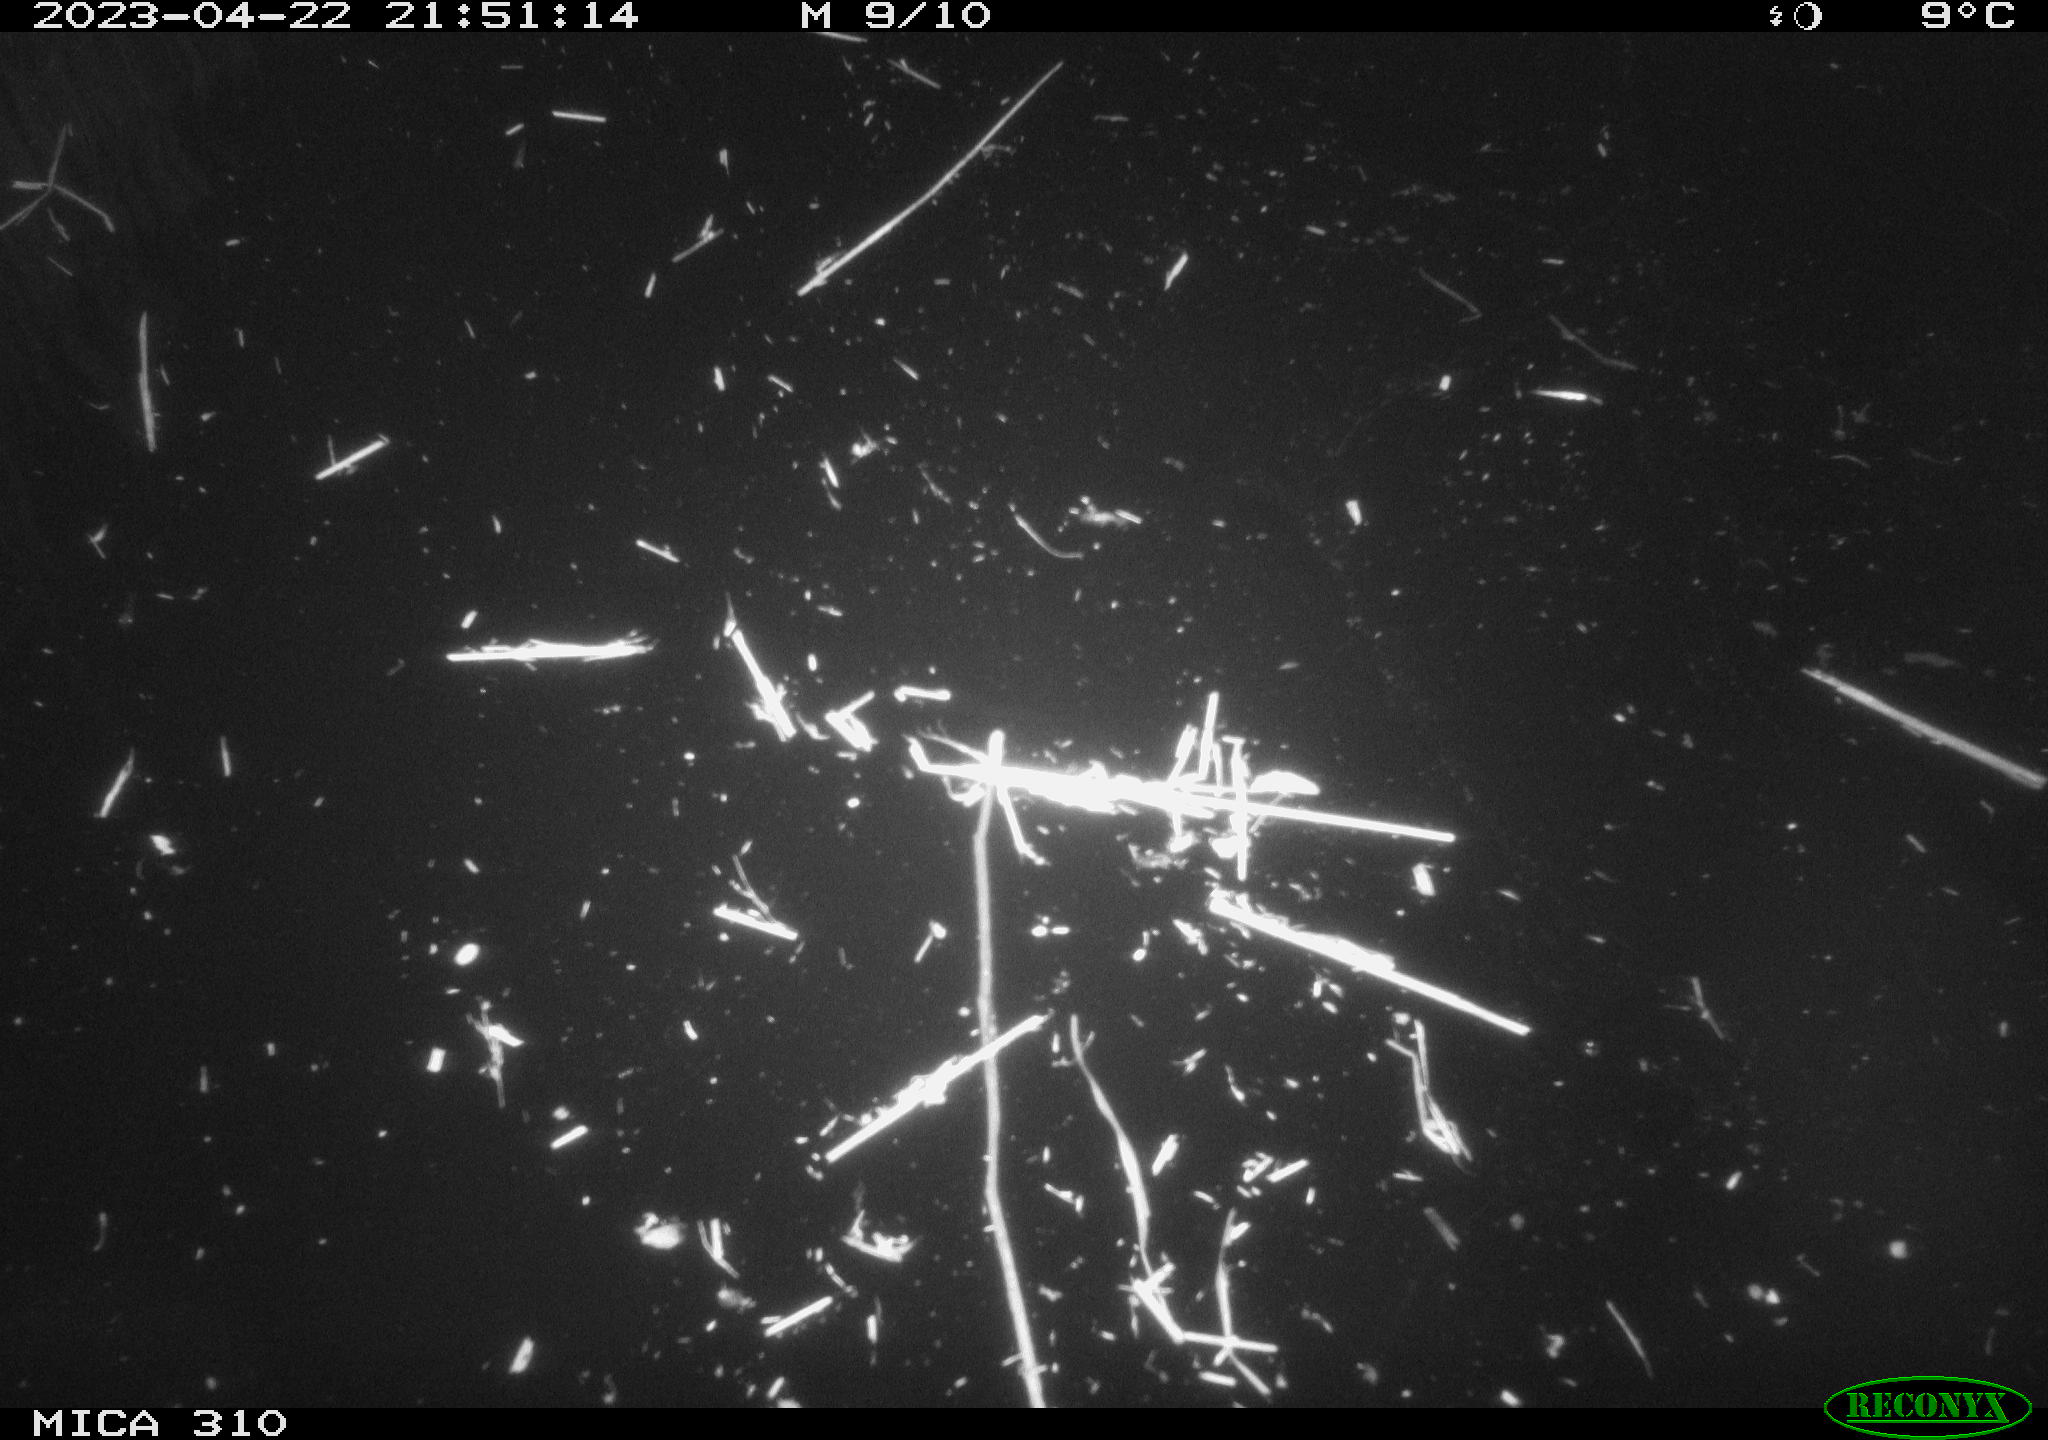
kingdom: Animalia
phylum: Chordata
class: Aves
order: Anseriformes
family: Anatidae
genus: Anas
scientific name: Anas
